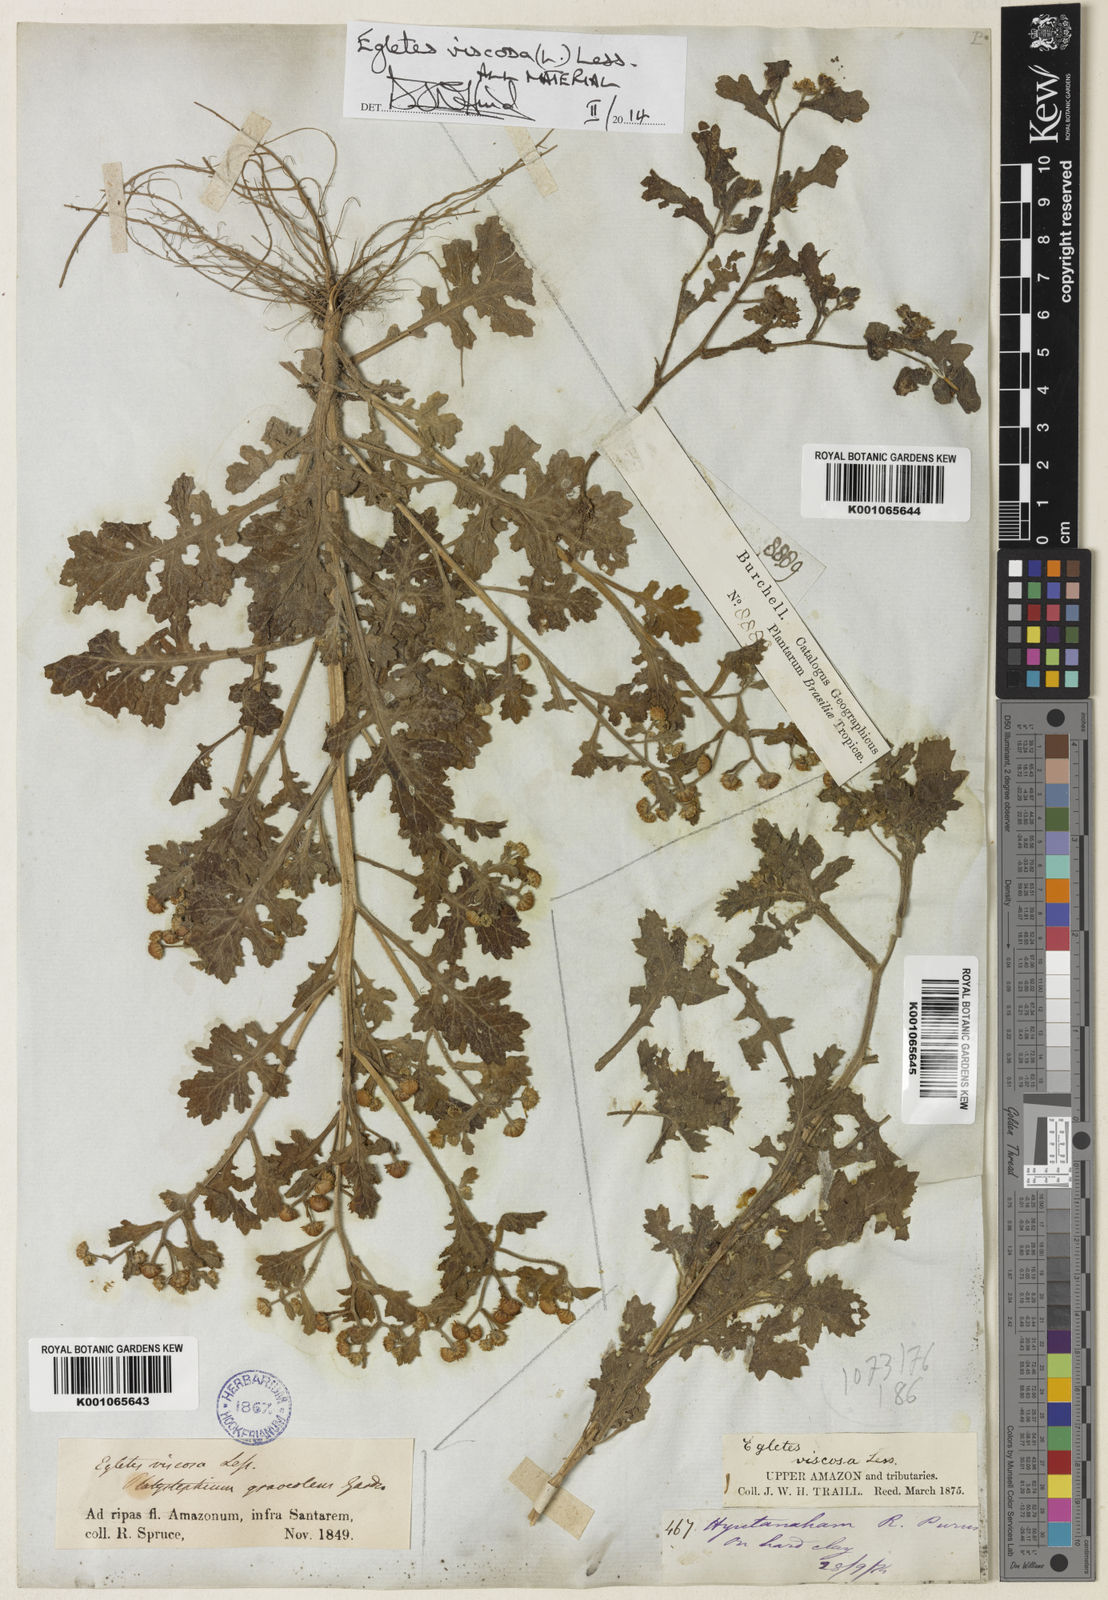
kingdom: Plantae
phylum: Tracheophyta
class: Magnoliopsida
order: Asterales
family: Asteraceae
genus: Egletes
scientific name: Egletes viscosa
